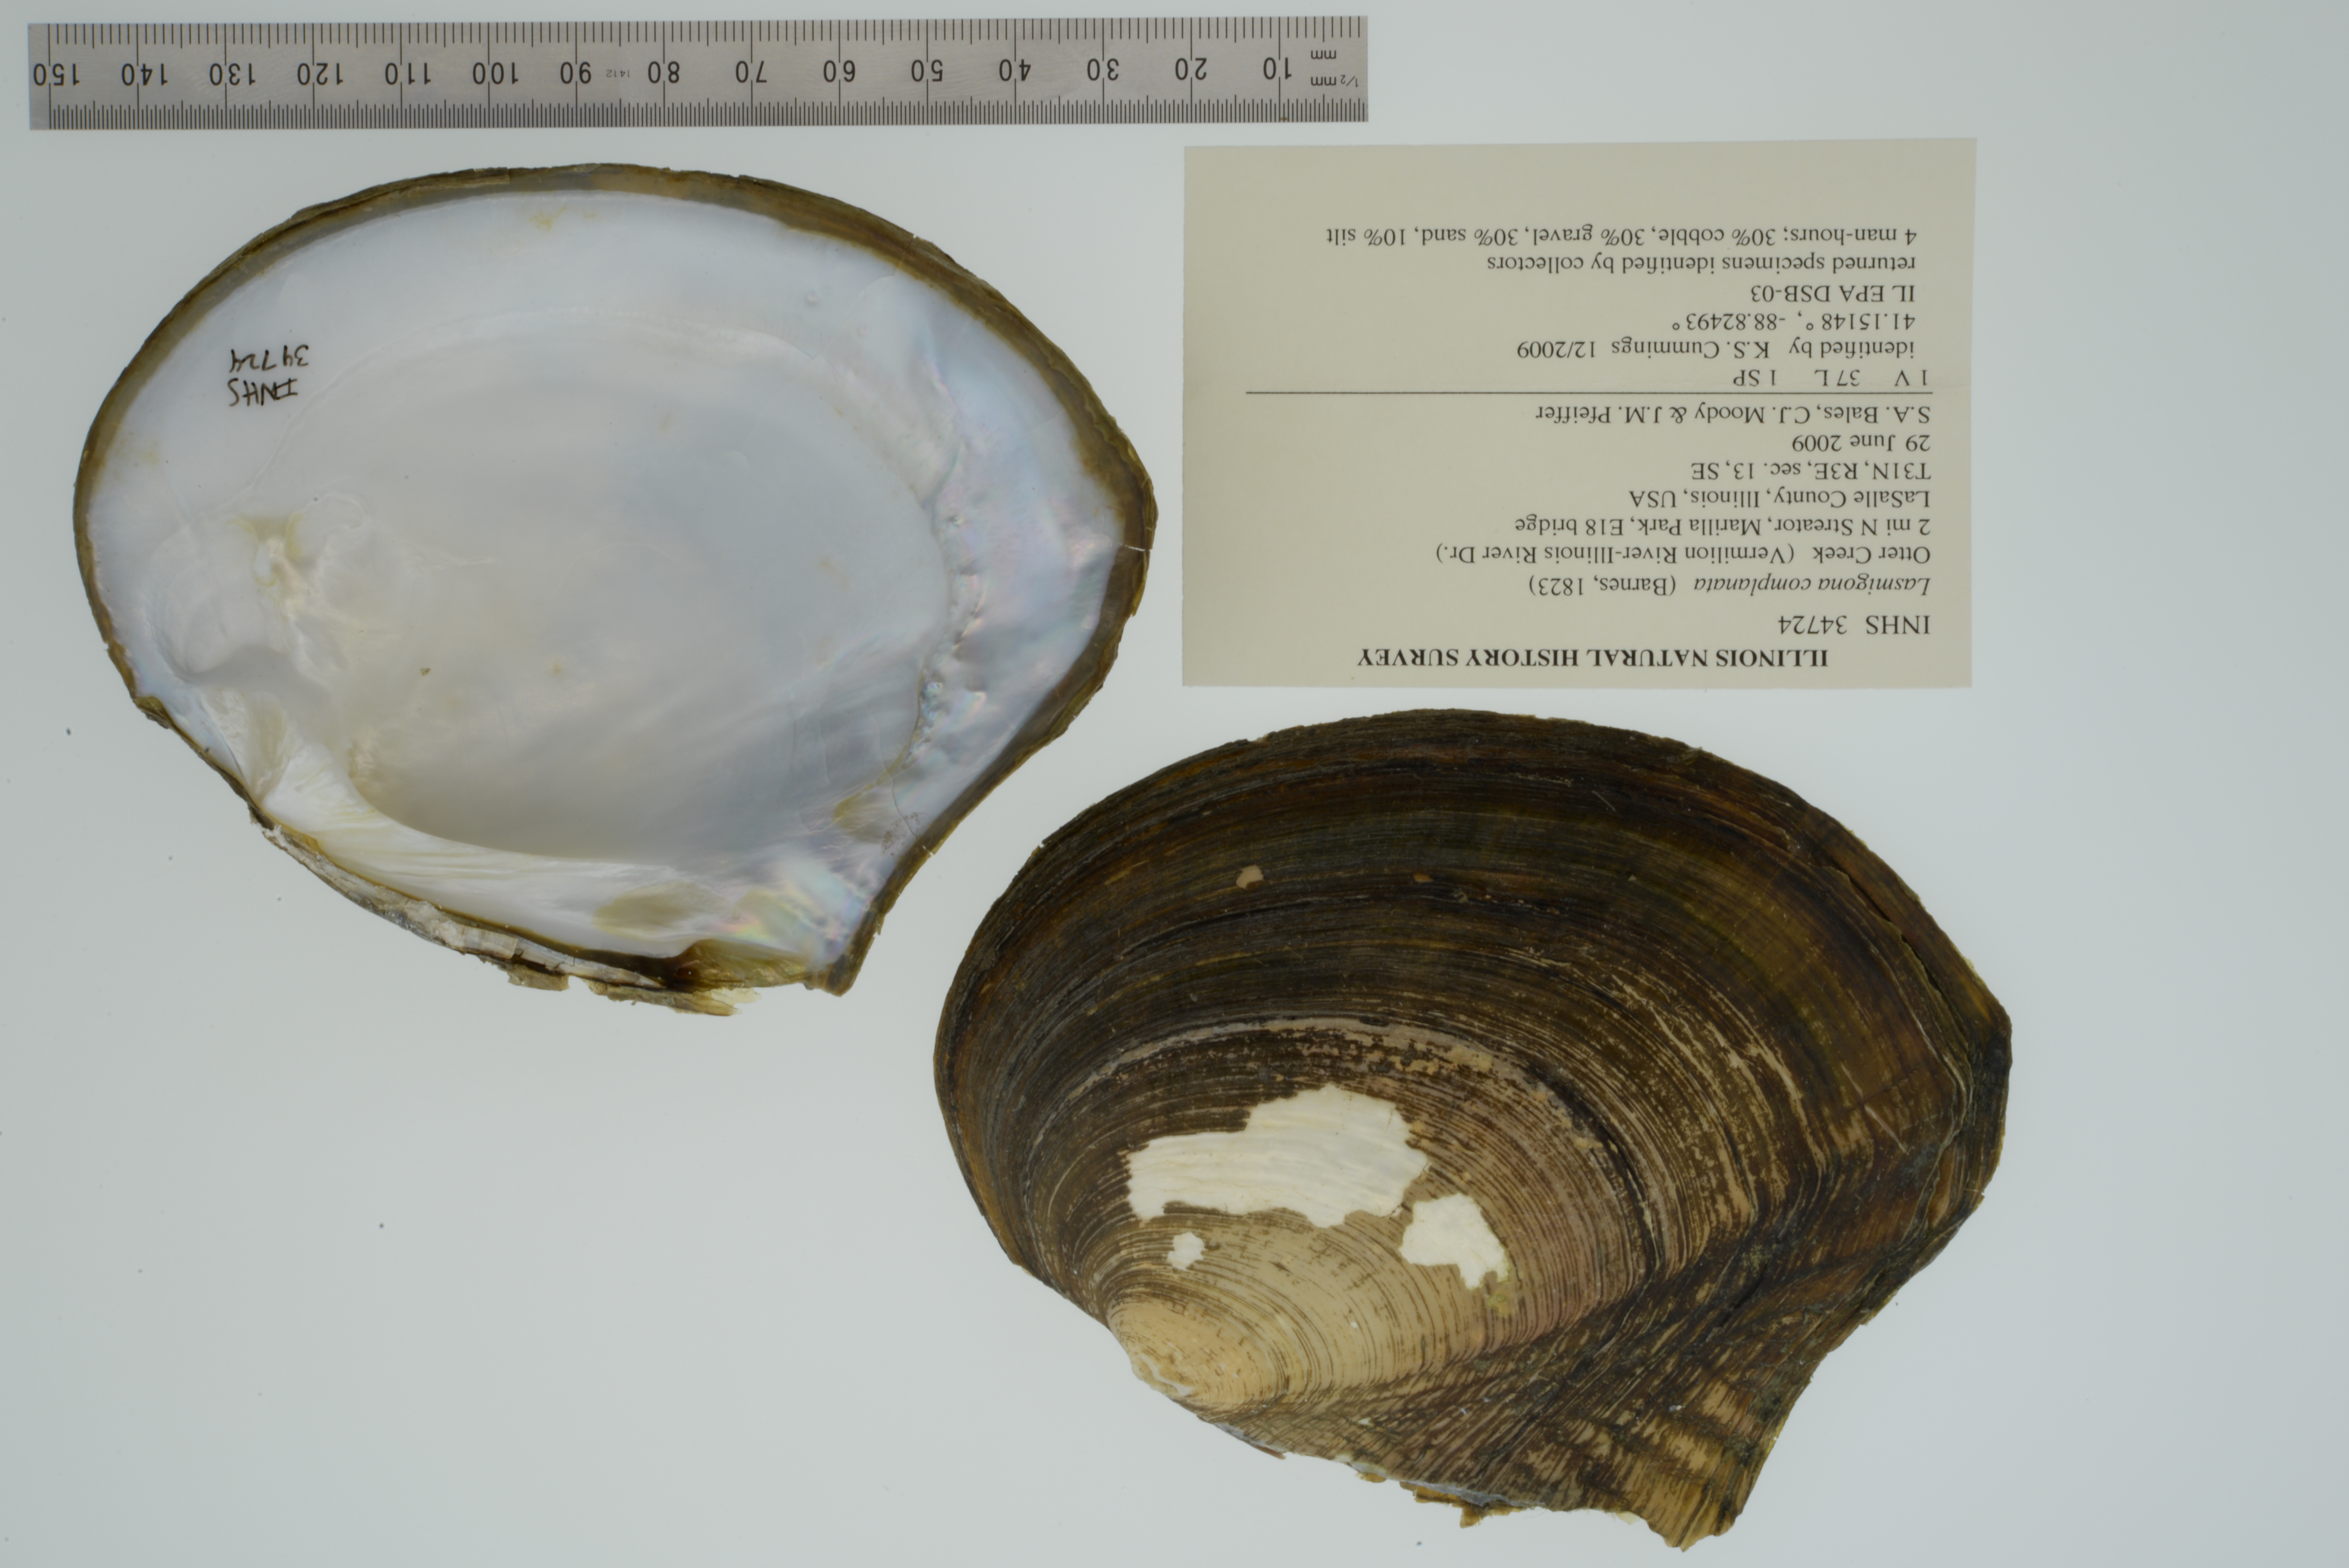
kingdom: Animalia
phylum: Mollusca
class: Bivalvia
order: Unionida
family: Unionidae
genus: Lasmigona
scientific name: Lasmigona complanata
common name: White heelsplitter
